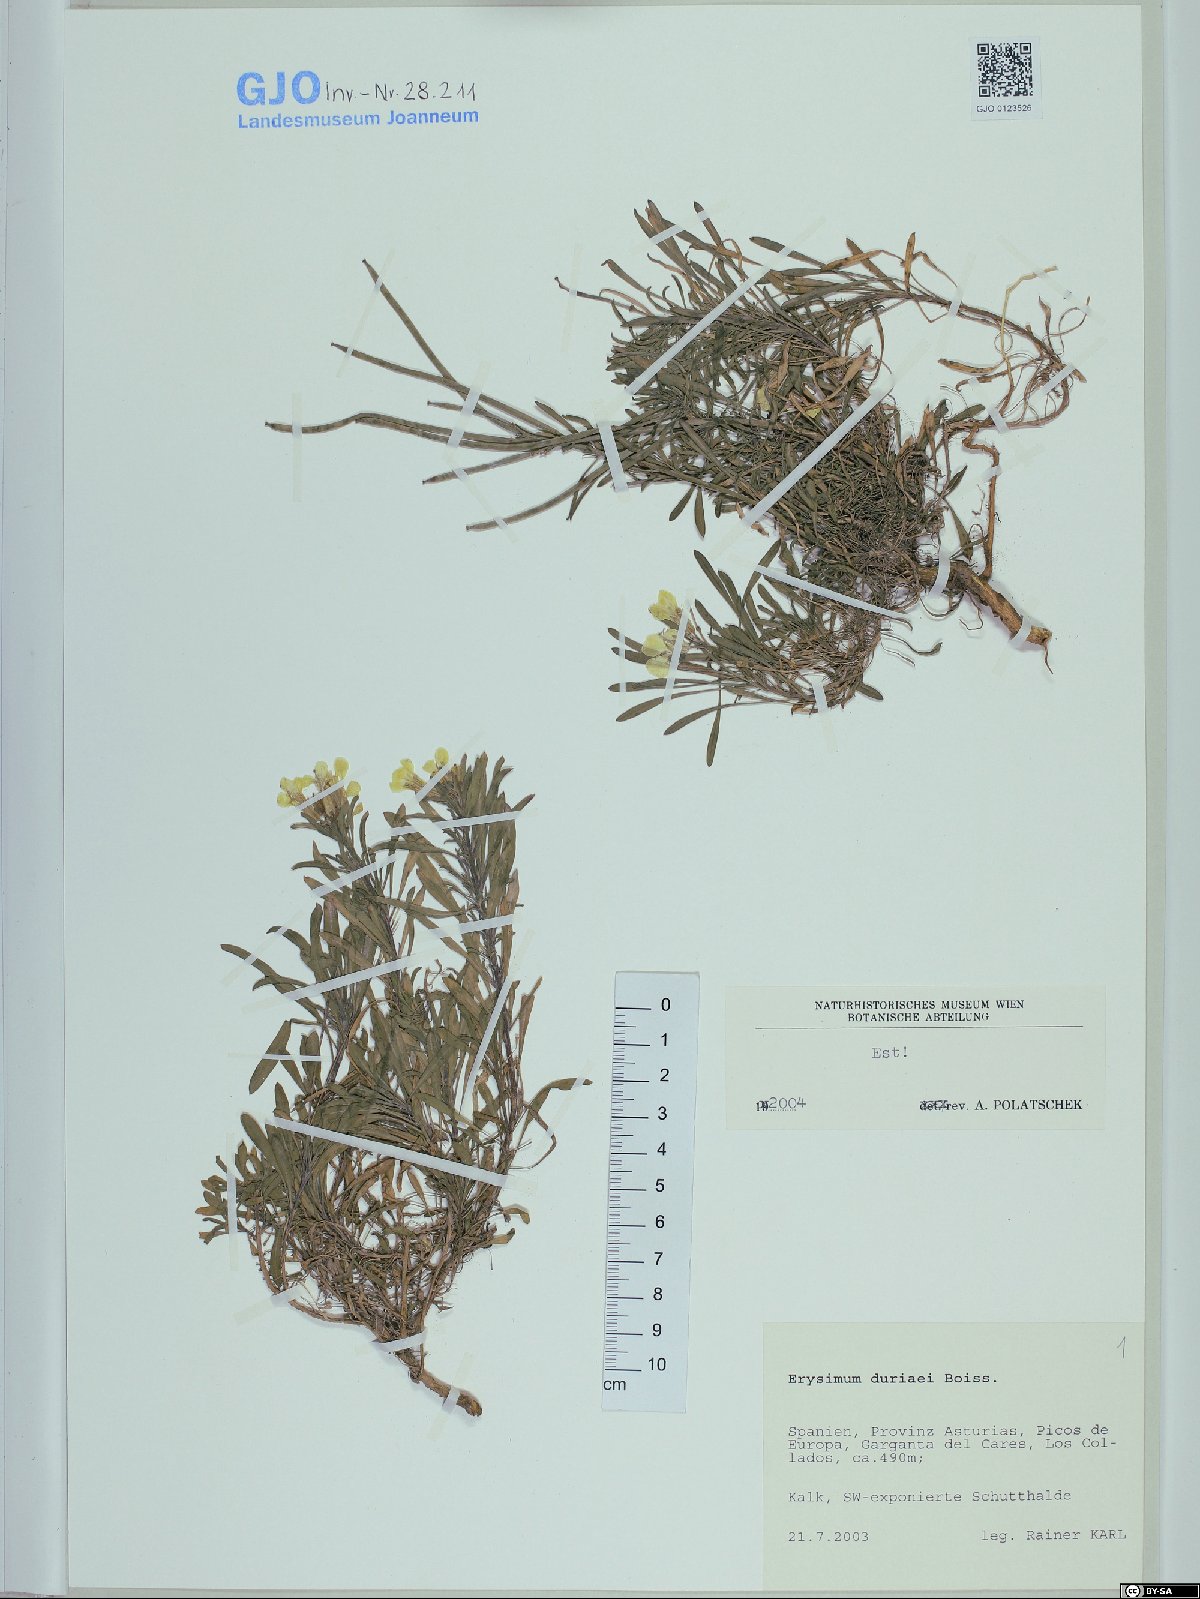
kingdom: Plantae
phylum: Tracheophyta
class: Magnoliopsida
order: Brassicales
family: Brassicaceae
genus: Erysimum
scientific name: Erysimum duriaei
